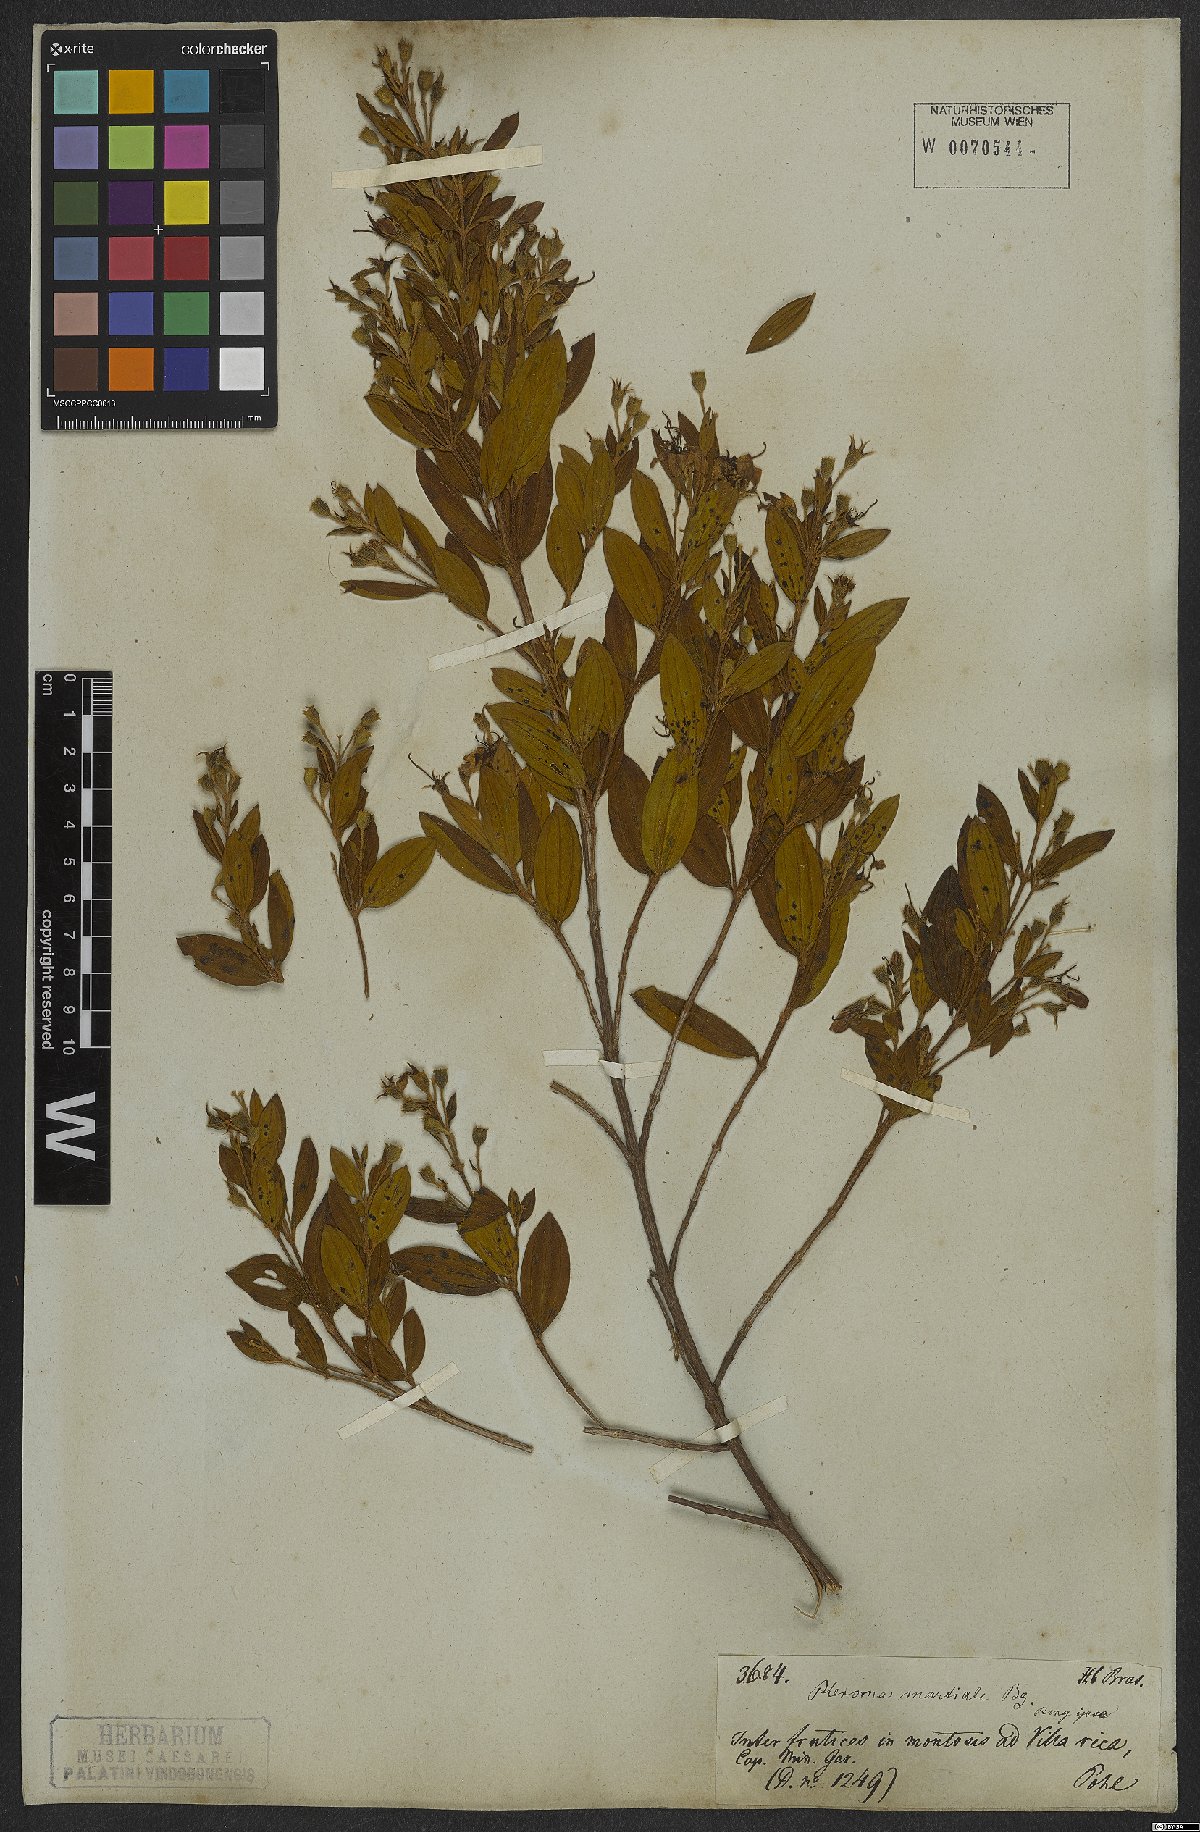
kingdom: Plantae
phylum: Tracheophyta
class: Magnoliopsida
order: Myrtales
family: Melastomataceae
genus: Pleroma
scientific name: Pleroma martiale
